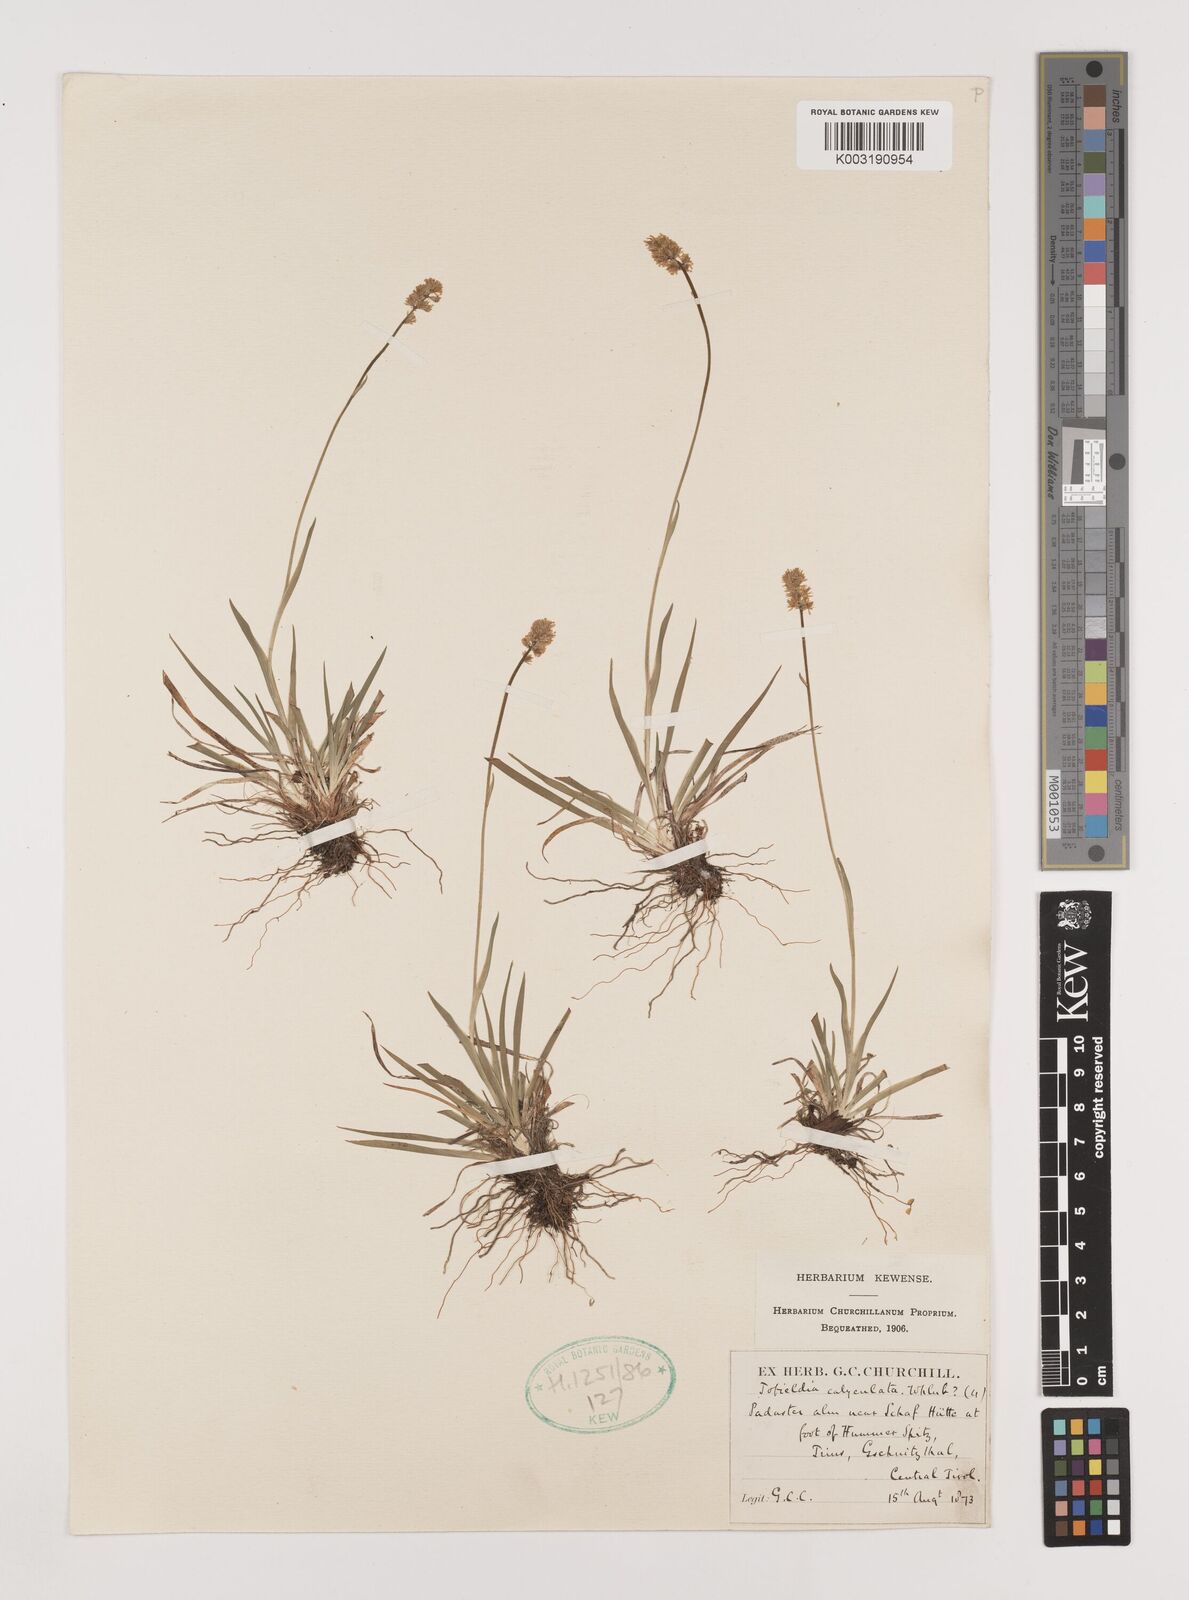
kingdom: Plantae
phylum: Tracheophyta
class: Liliopsida
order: Alismatales
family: Tofieldiaceae
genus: Tofieldia
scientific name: Tofieldia calyculata
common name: German-asphodel
